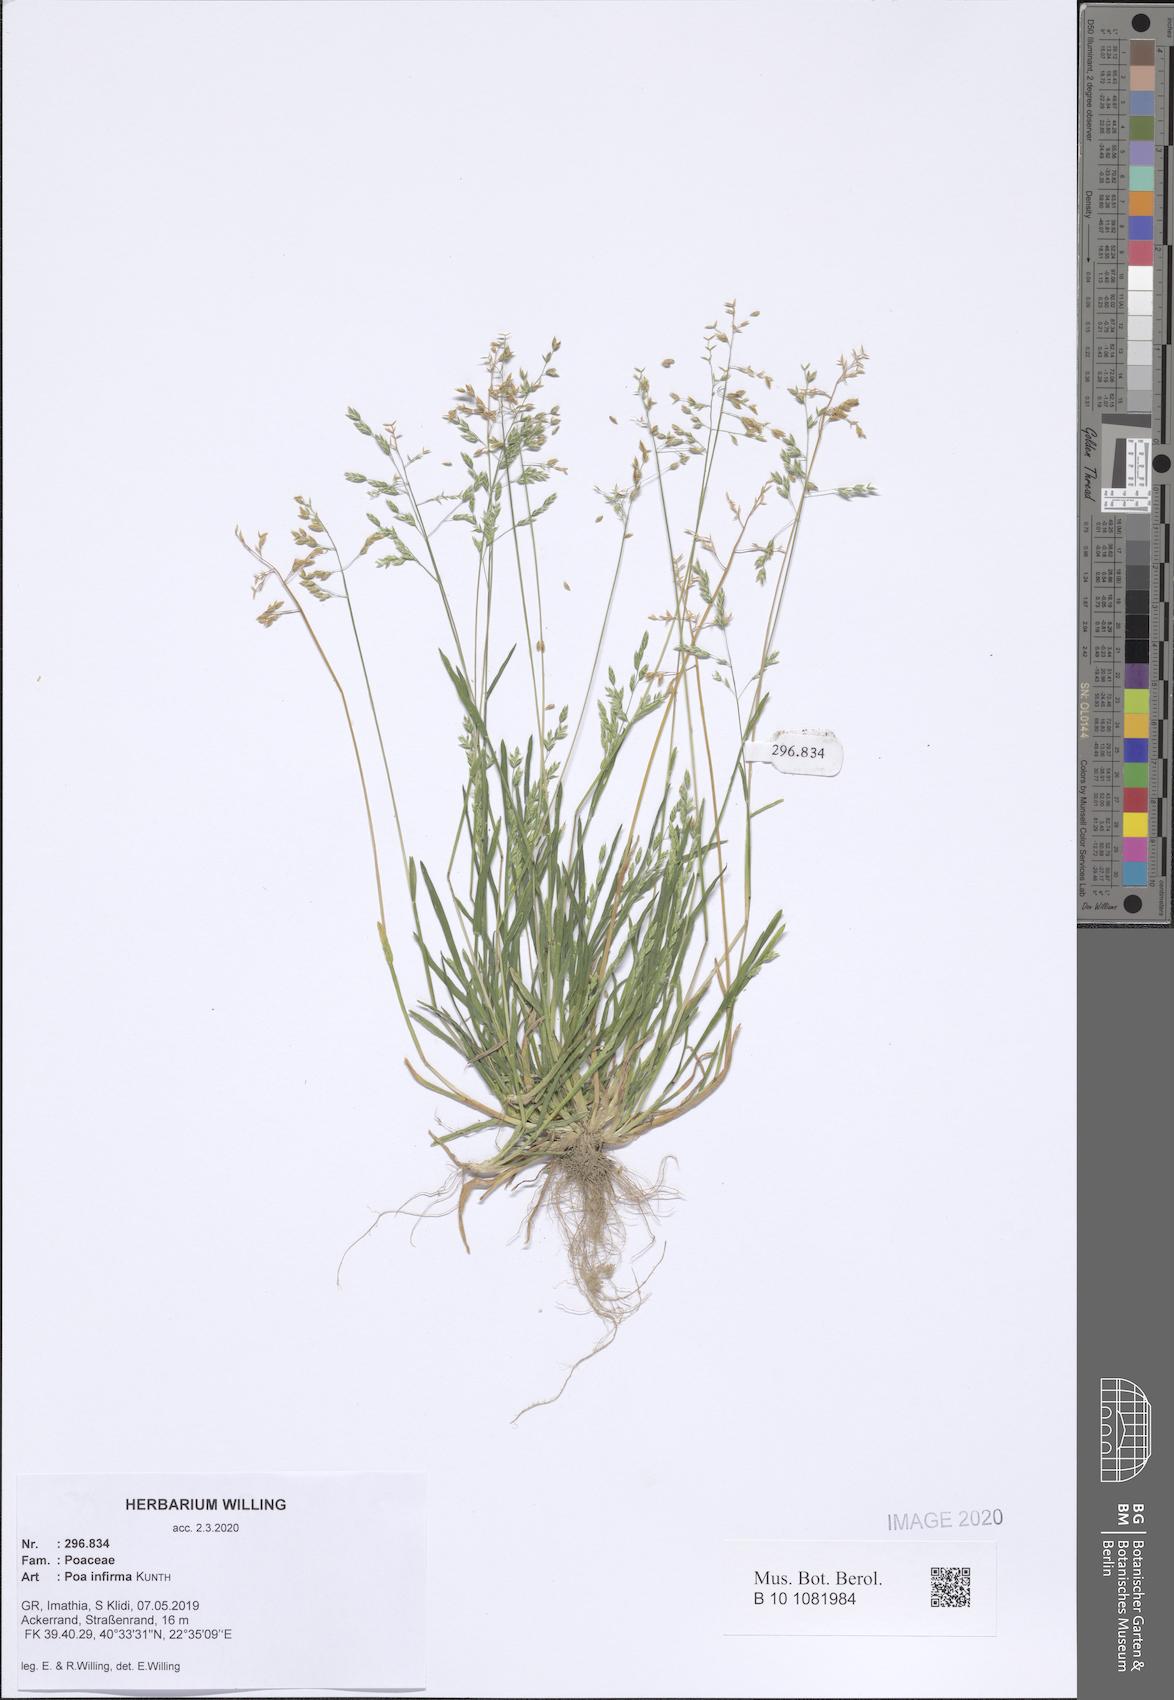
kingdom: Plantae
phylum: Tracheophyta
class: Liliopsida
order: Poales
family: Poaceae
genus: Poa
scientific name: Poa infirma
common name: Weak bluegrass
